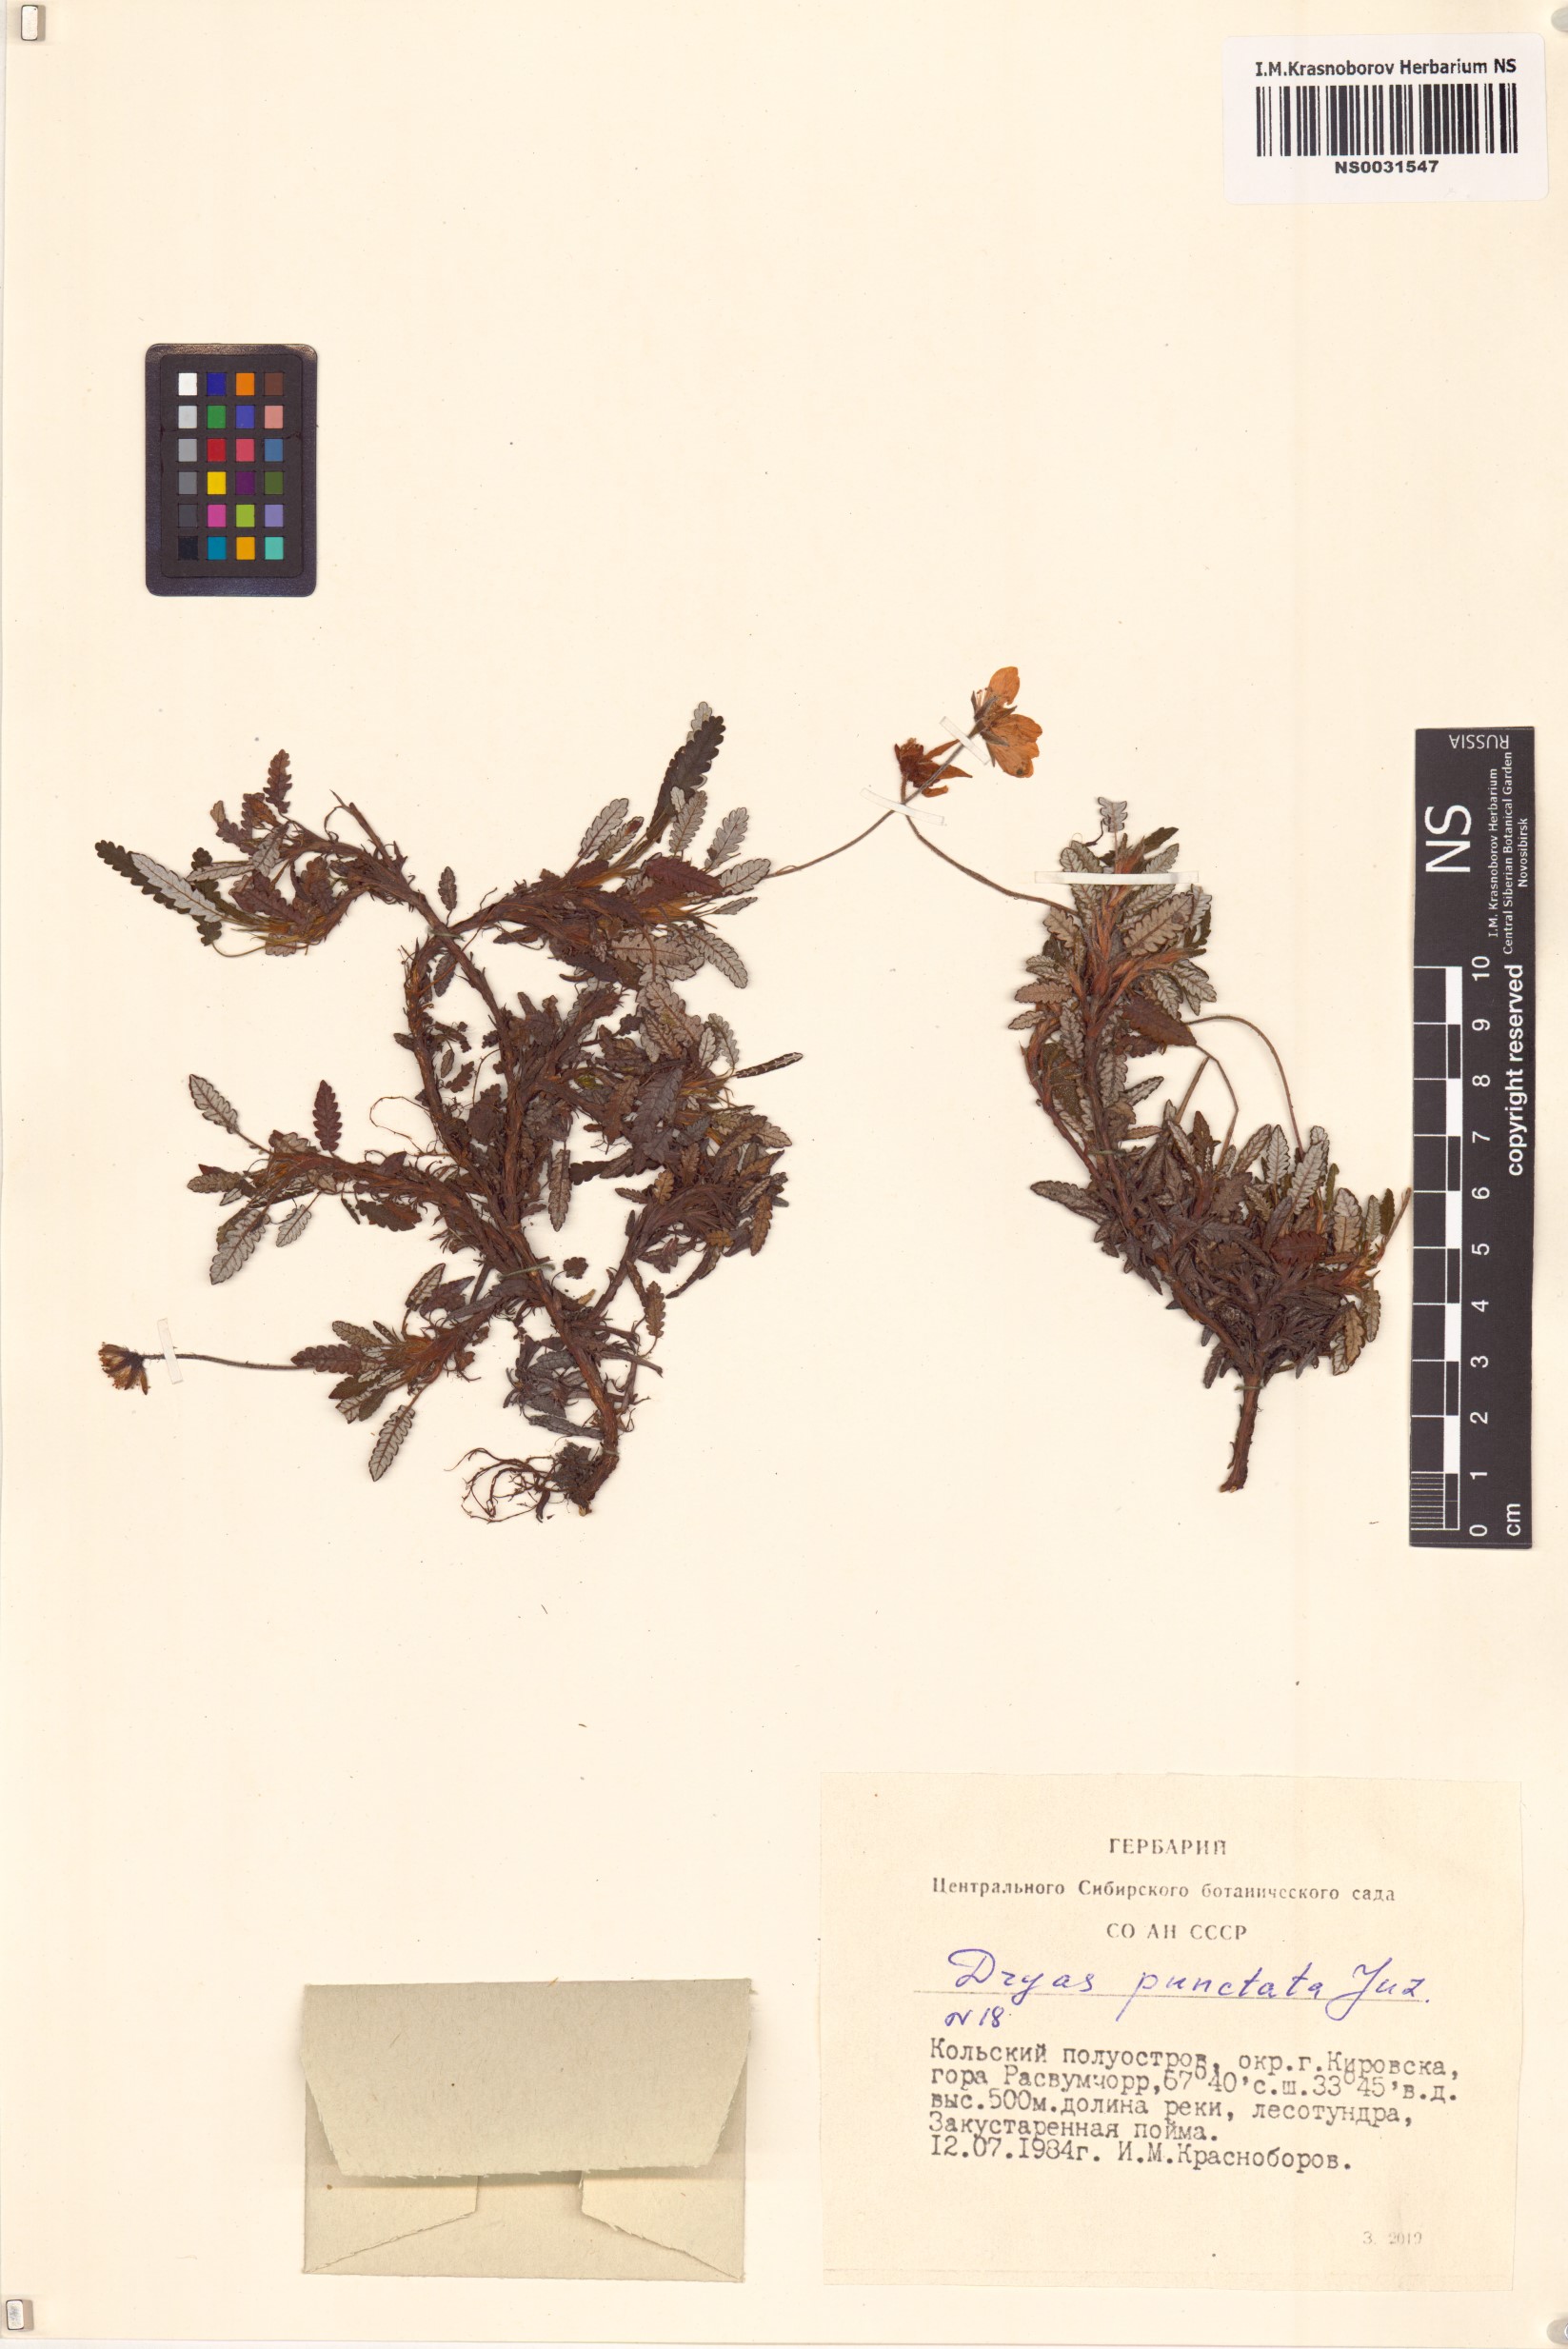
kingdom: Plantae
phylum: Tracheophyta
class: Magnoliopsida
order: Rosales
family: Rosaceae
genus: Dryas
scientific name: Dryas octopetala
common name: Eight-petal mountain-avens
